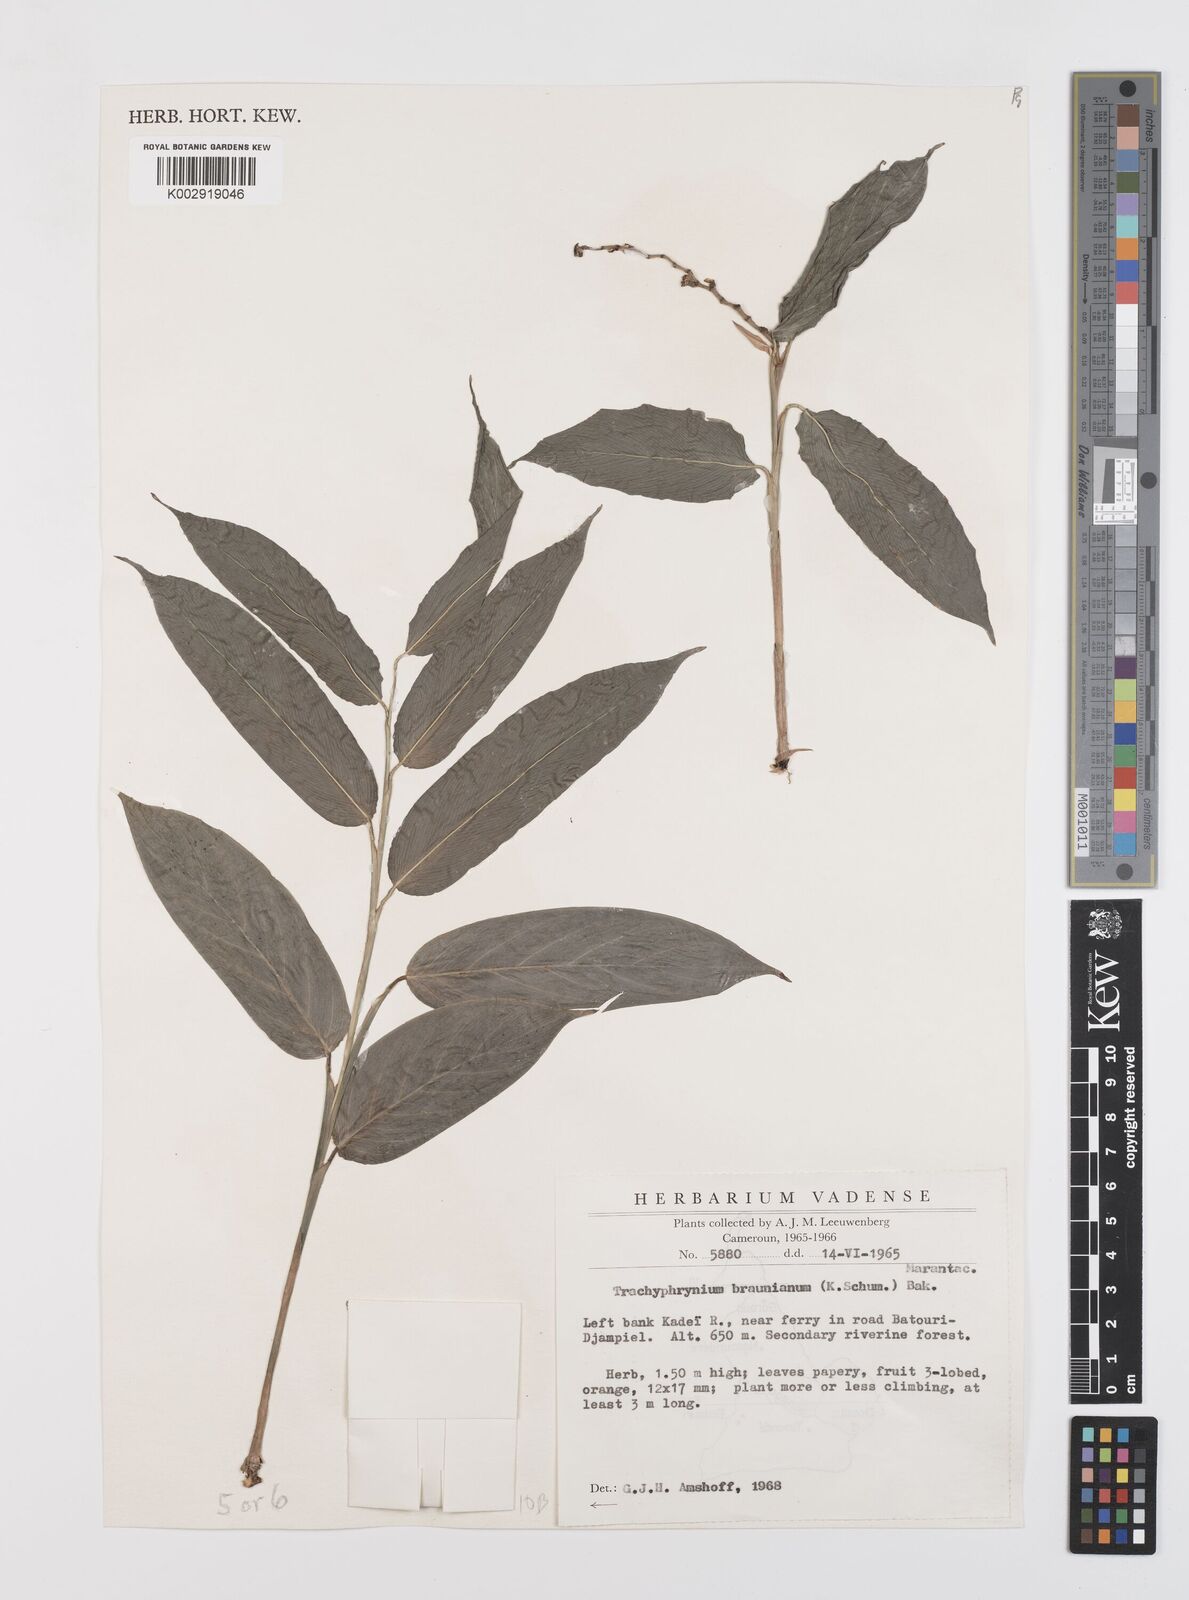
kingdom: Plantae
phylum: Tracheophyta
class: Liliopsida
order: Zingiberales
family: Marantaceae
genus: Trachyphrynium
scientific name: Trachyphrynium braunianum
